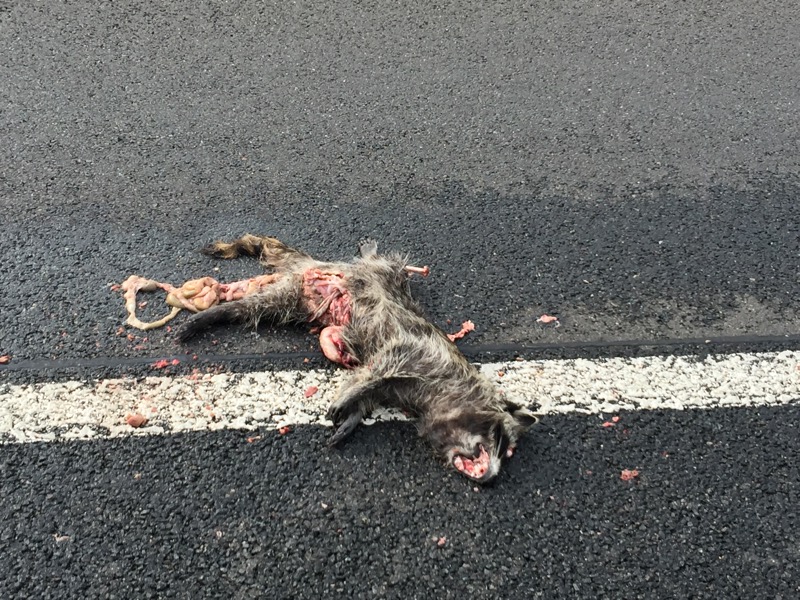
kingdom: Animalia
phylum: Chordata
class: Mammalia
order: Carnivora
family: Procyonidae
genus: Procyon
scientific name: Procyon lotor
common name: Raccoon
